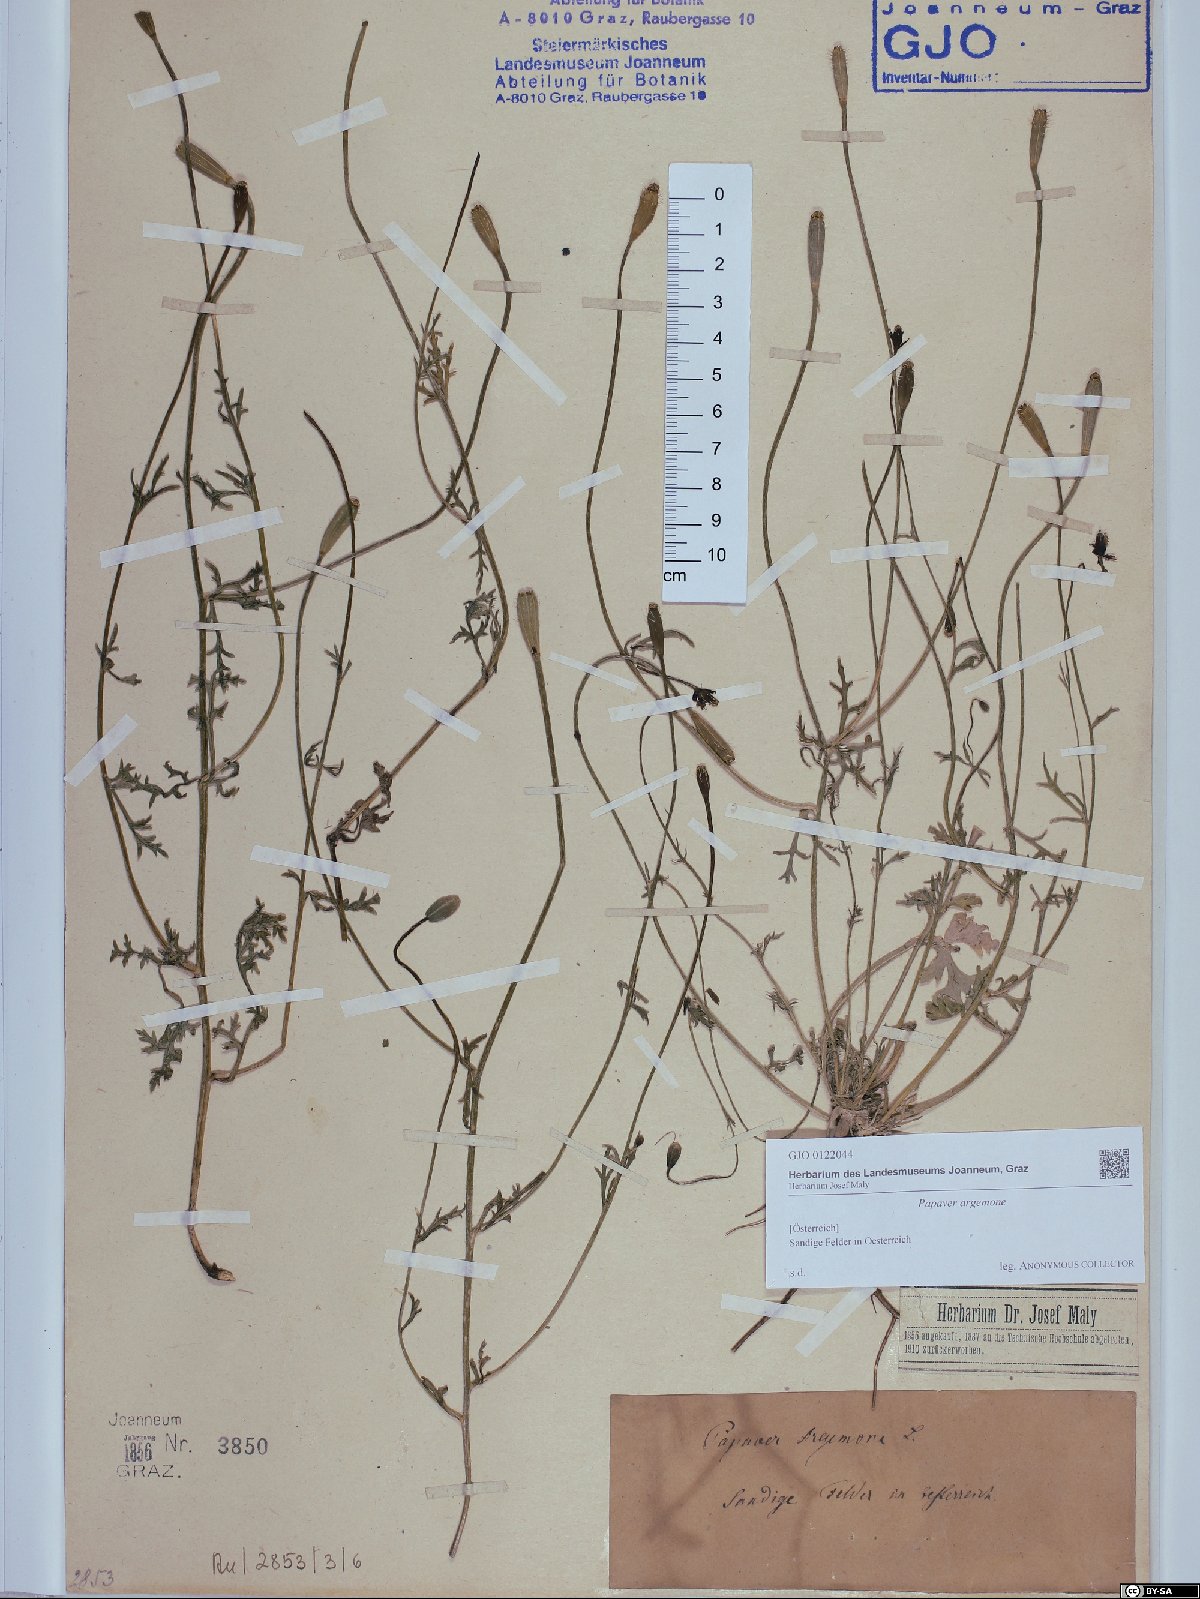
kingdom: Plantae
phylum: Tracheophyta
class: Magnoliopsida
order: Ranunculales
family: Papaveraceae
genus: Roemeria
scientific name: Roemeria argemone
